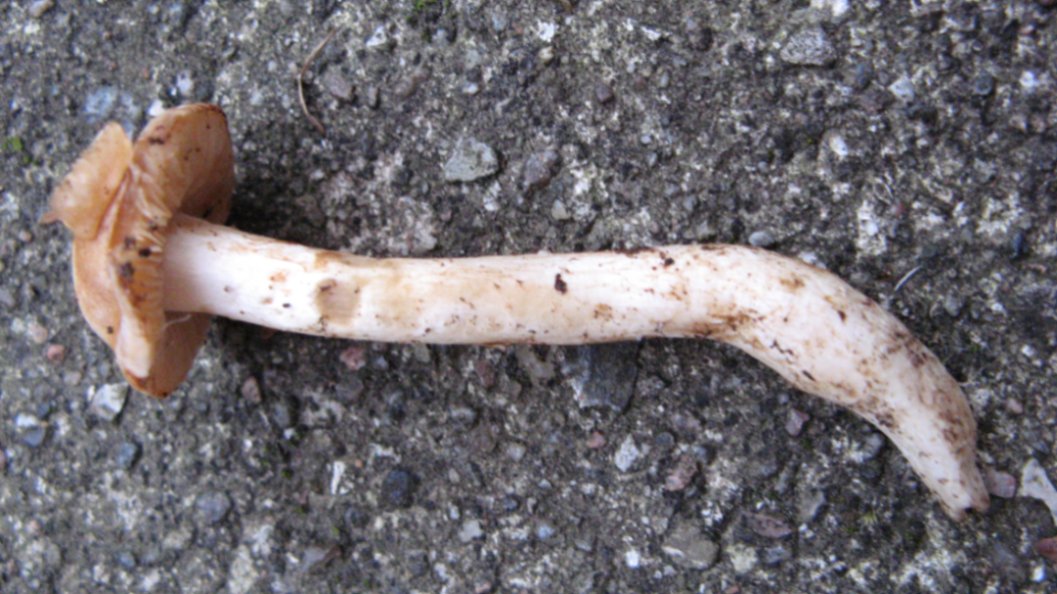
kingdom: Fungi
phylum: Basidiomycota
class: Agaricomycetes
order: Agaricales
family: Cortinariaceae
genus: Thaxterogaster
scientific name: Thaxterogaster leucoluteolus
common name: isabella slørhat
